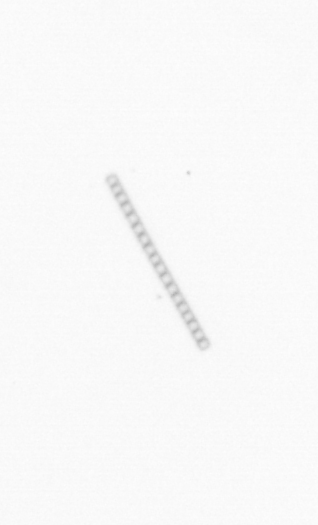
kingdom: Chromista
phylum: Ochrophyta
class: Bacillariophyceae
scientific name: Bacillariophyceae
